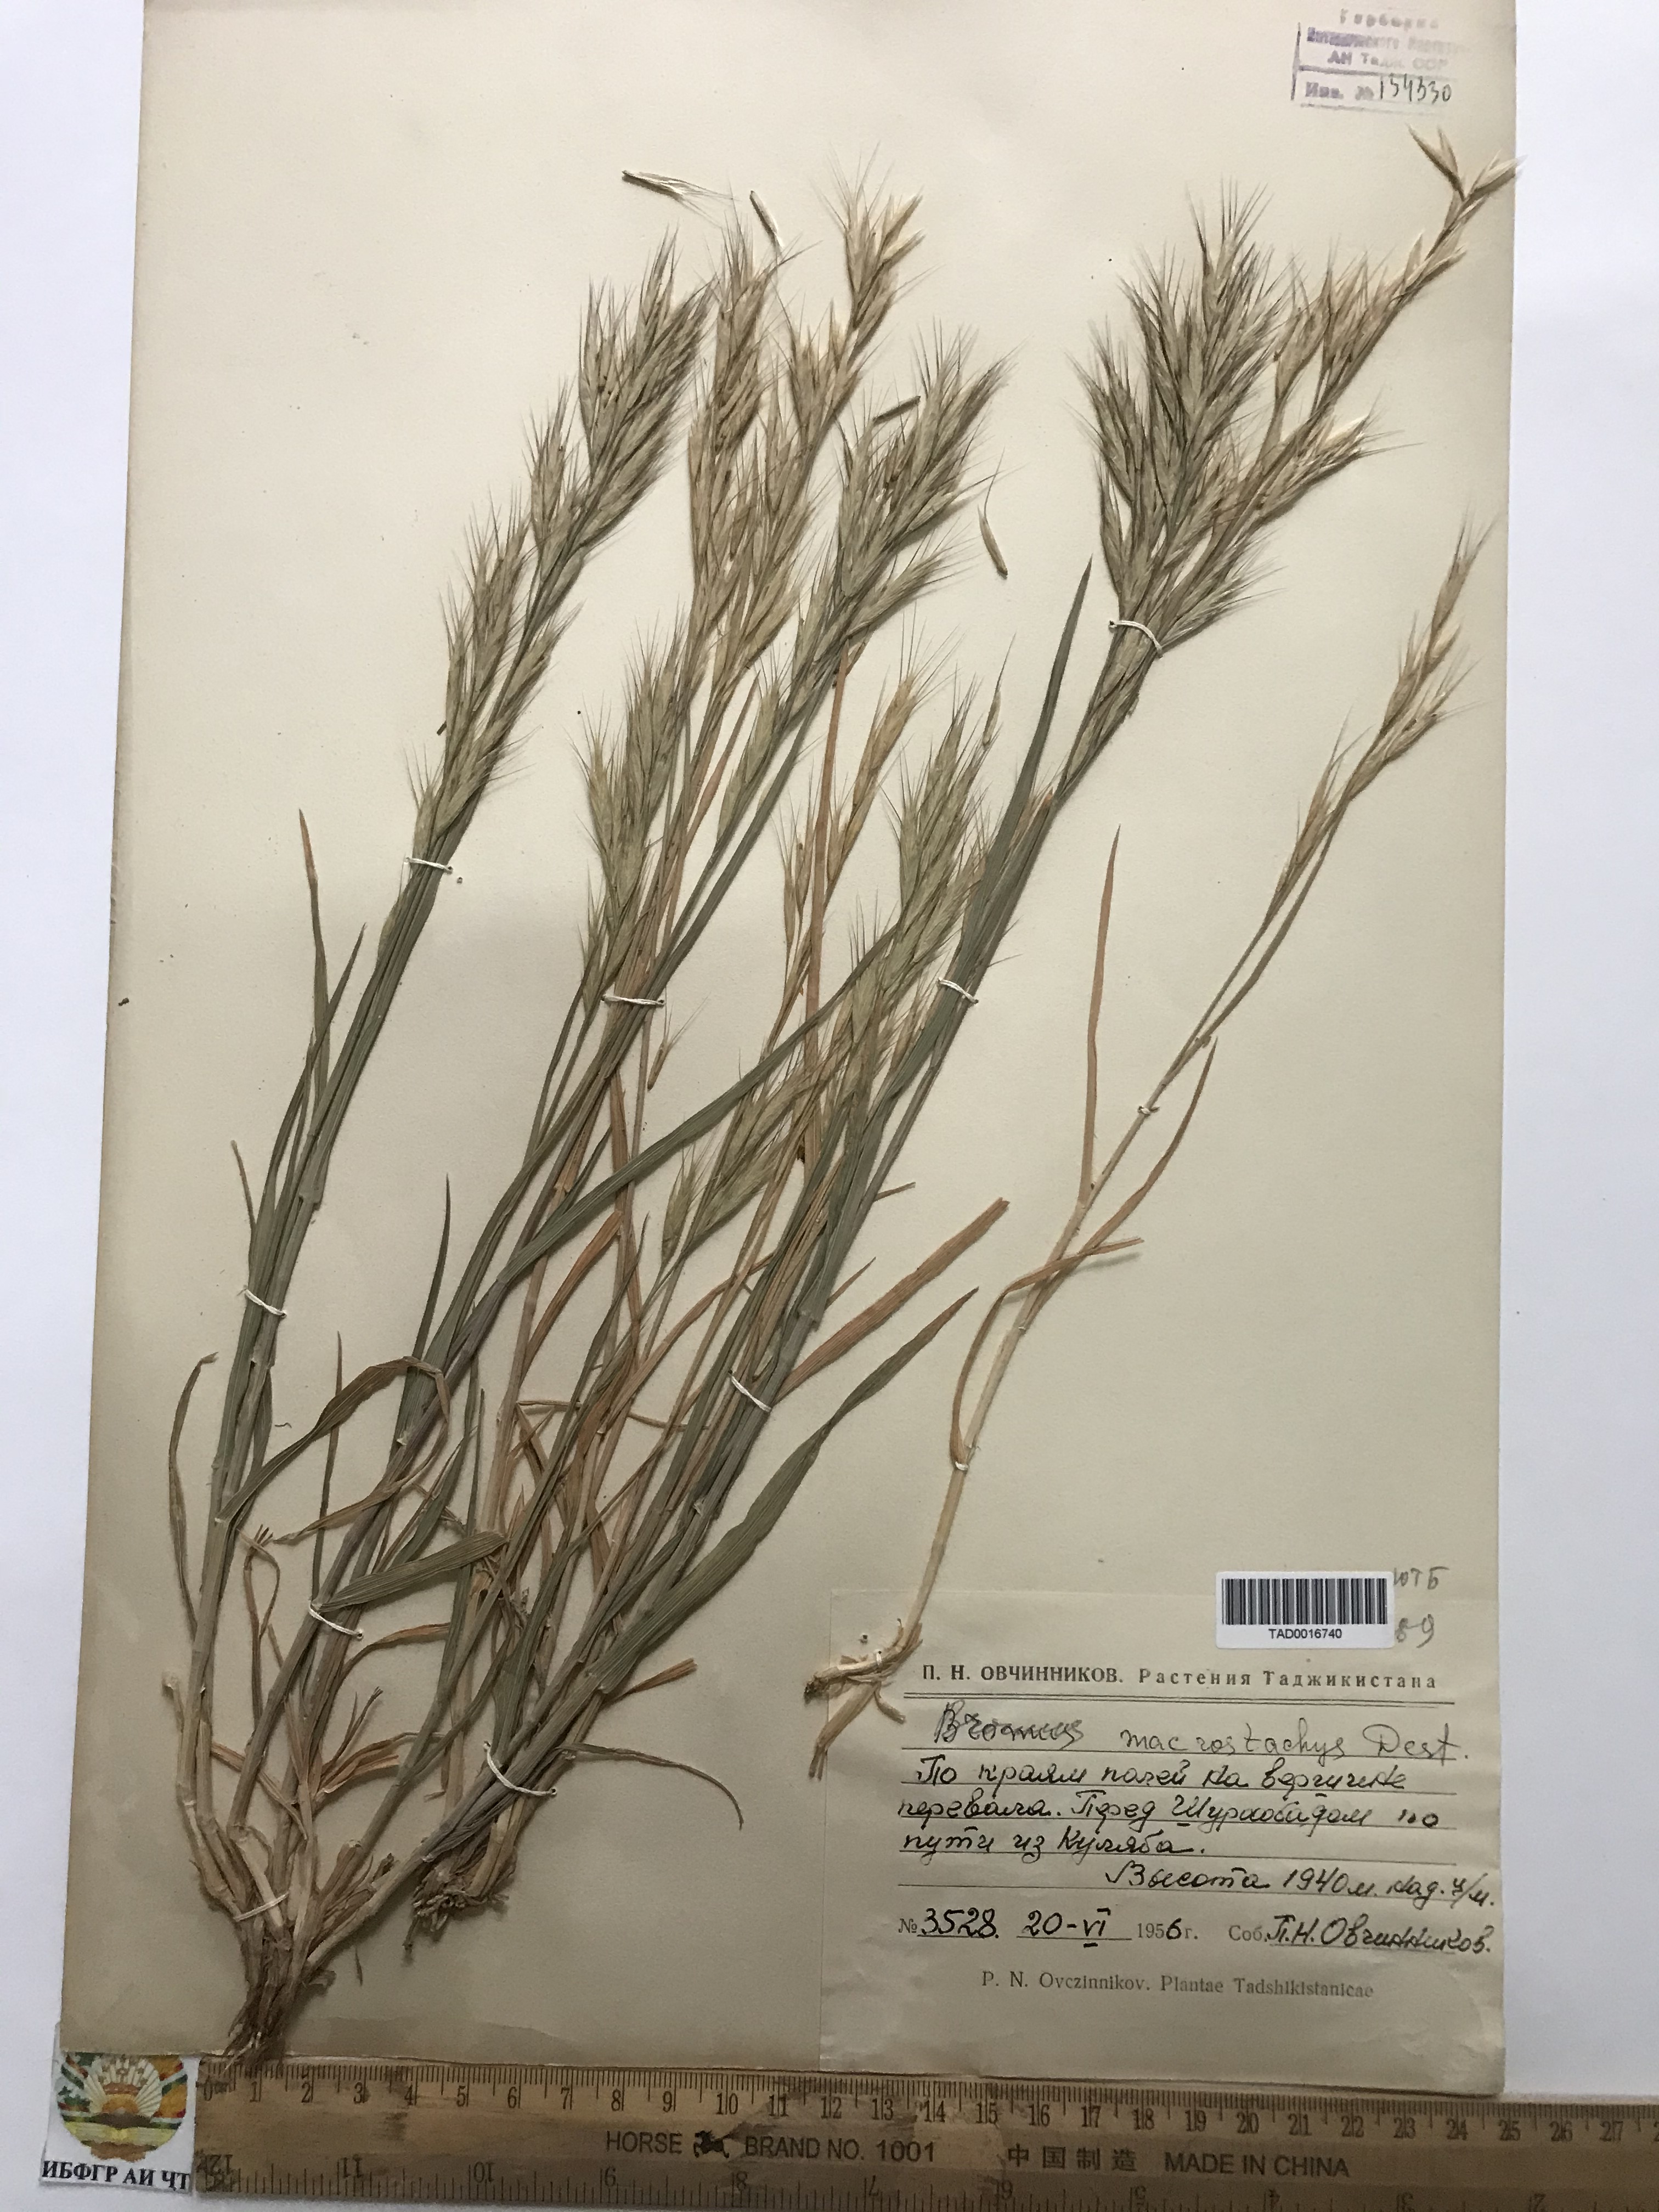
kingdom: Plantae
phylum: Tracheophyta
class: Liliopsida
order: Poales
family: Poaceae
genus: Bromus
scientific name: Bromus lanceolatus
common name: Mediterranean brome
